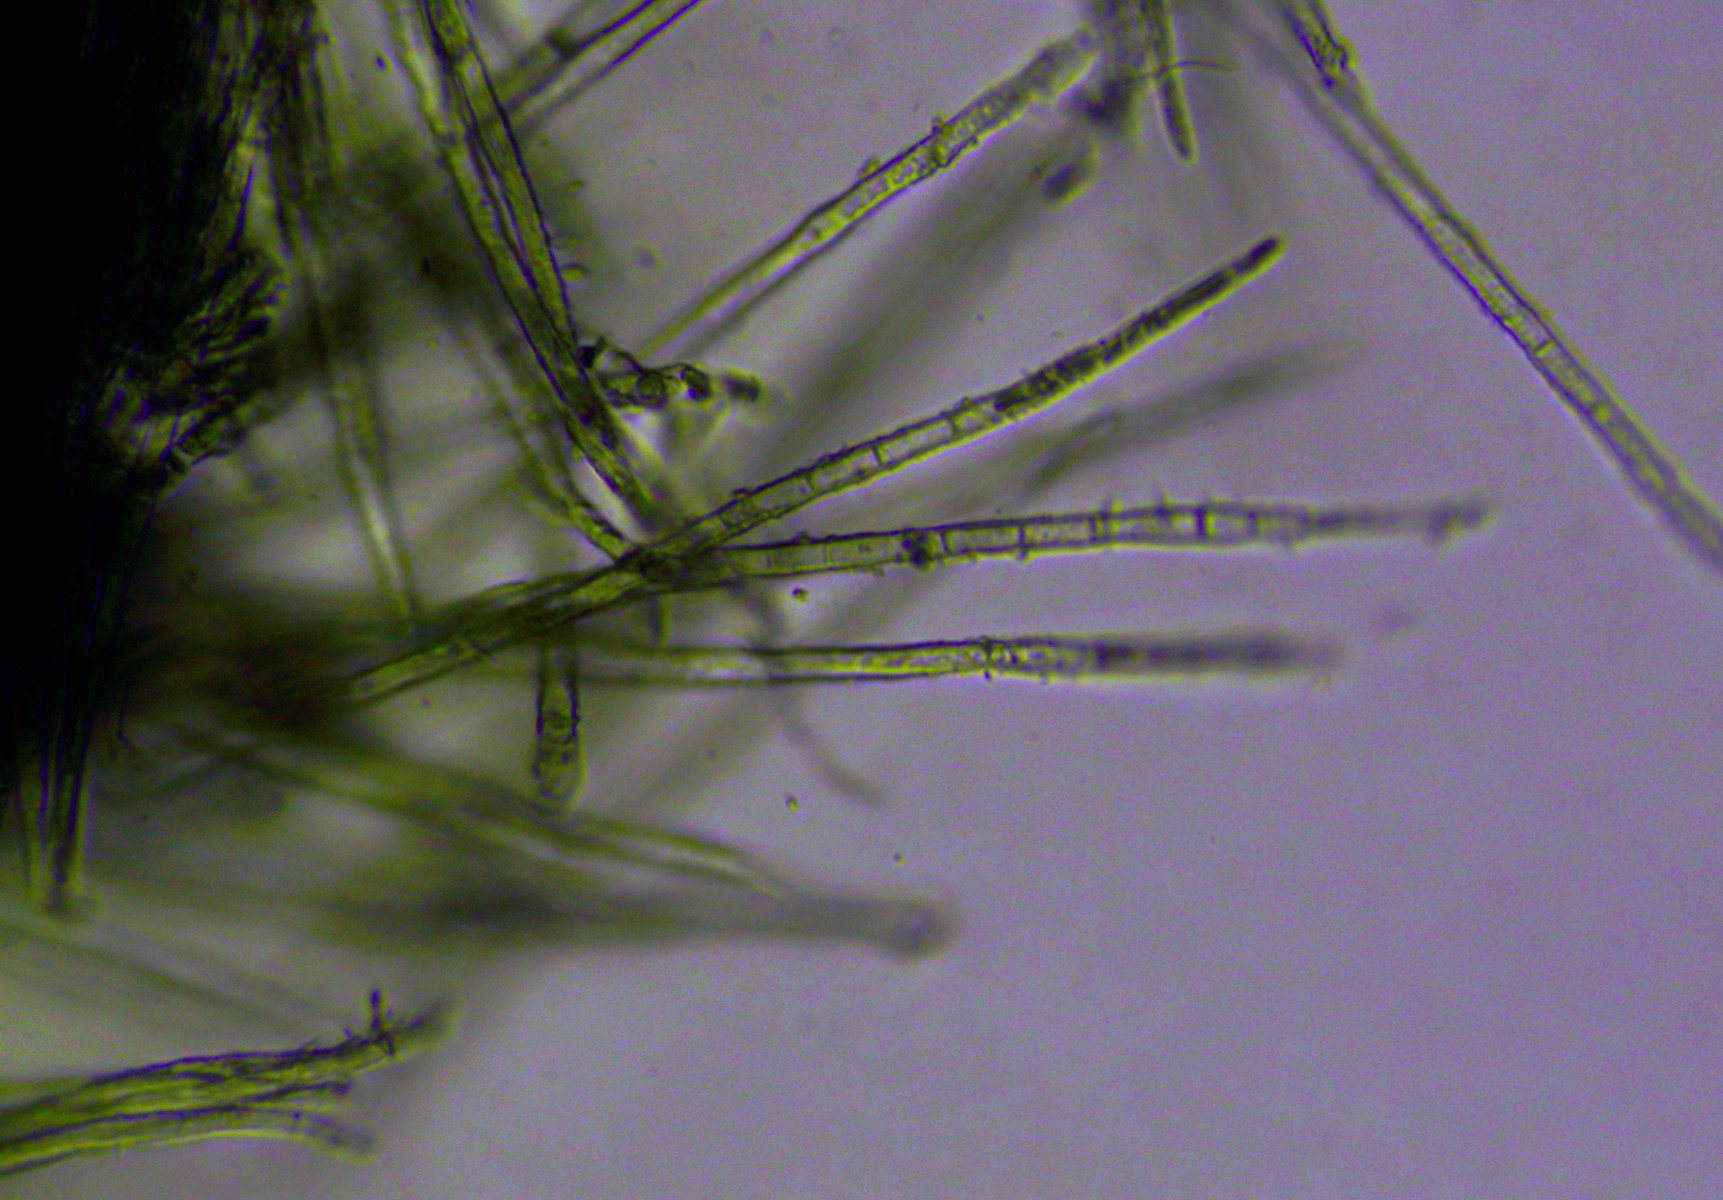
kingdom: Fungi
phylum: Ascomycota
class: Leotiomycetes
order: Helotiales
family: Lachnaceae
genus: Lachnum
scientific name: Lachnum mollissimum
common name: smuk frynseskive
